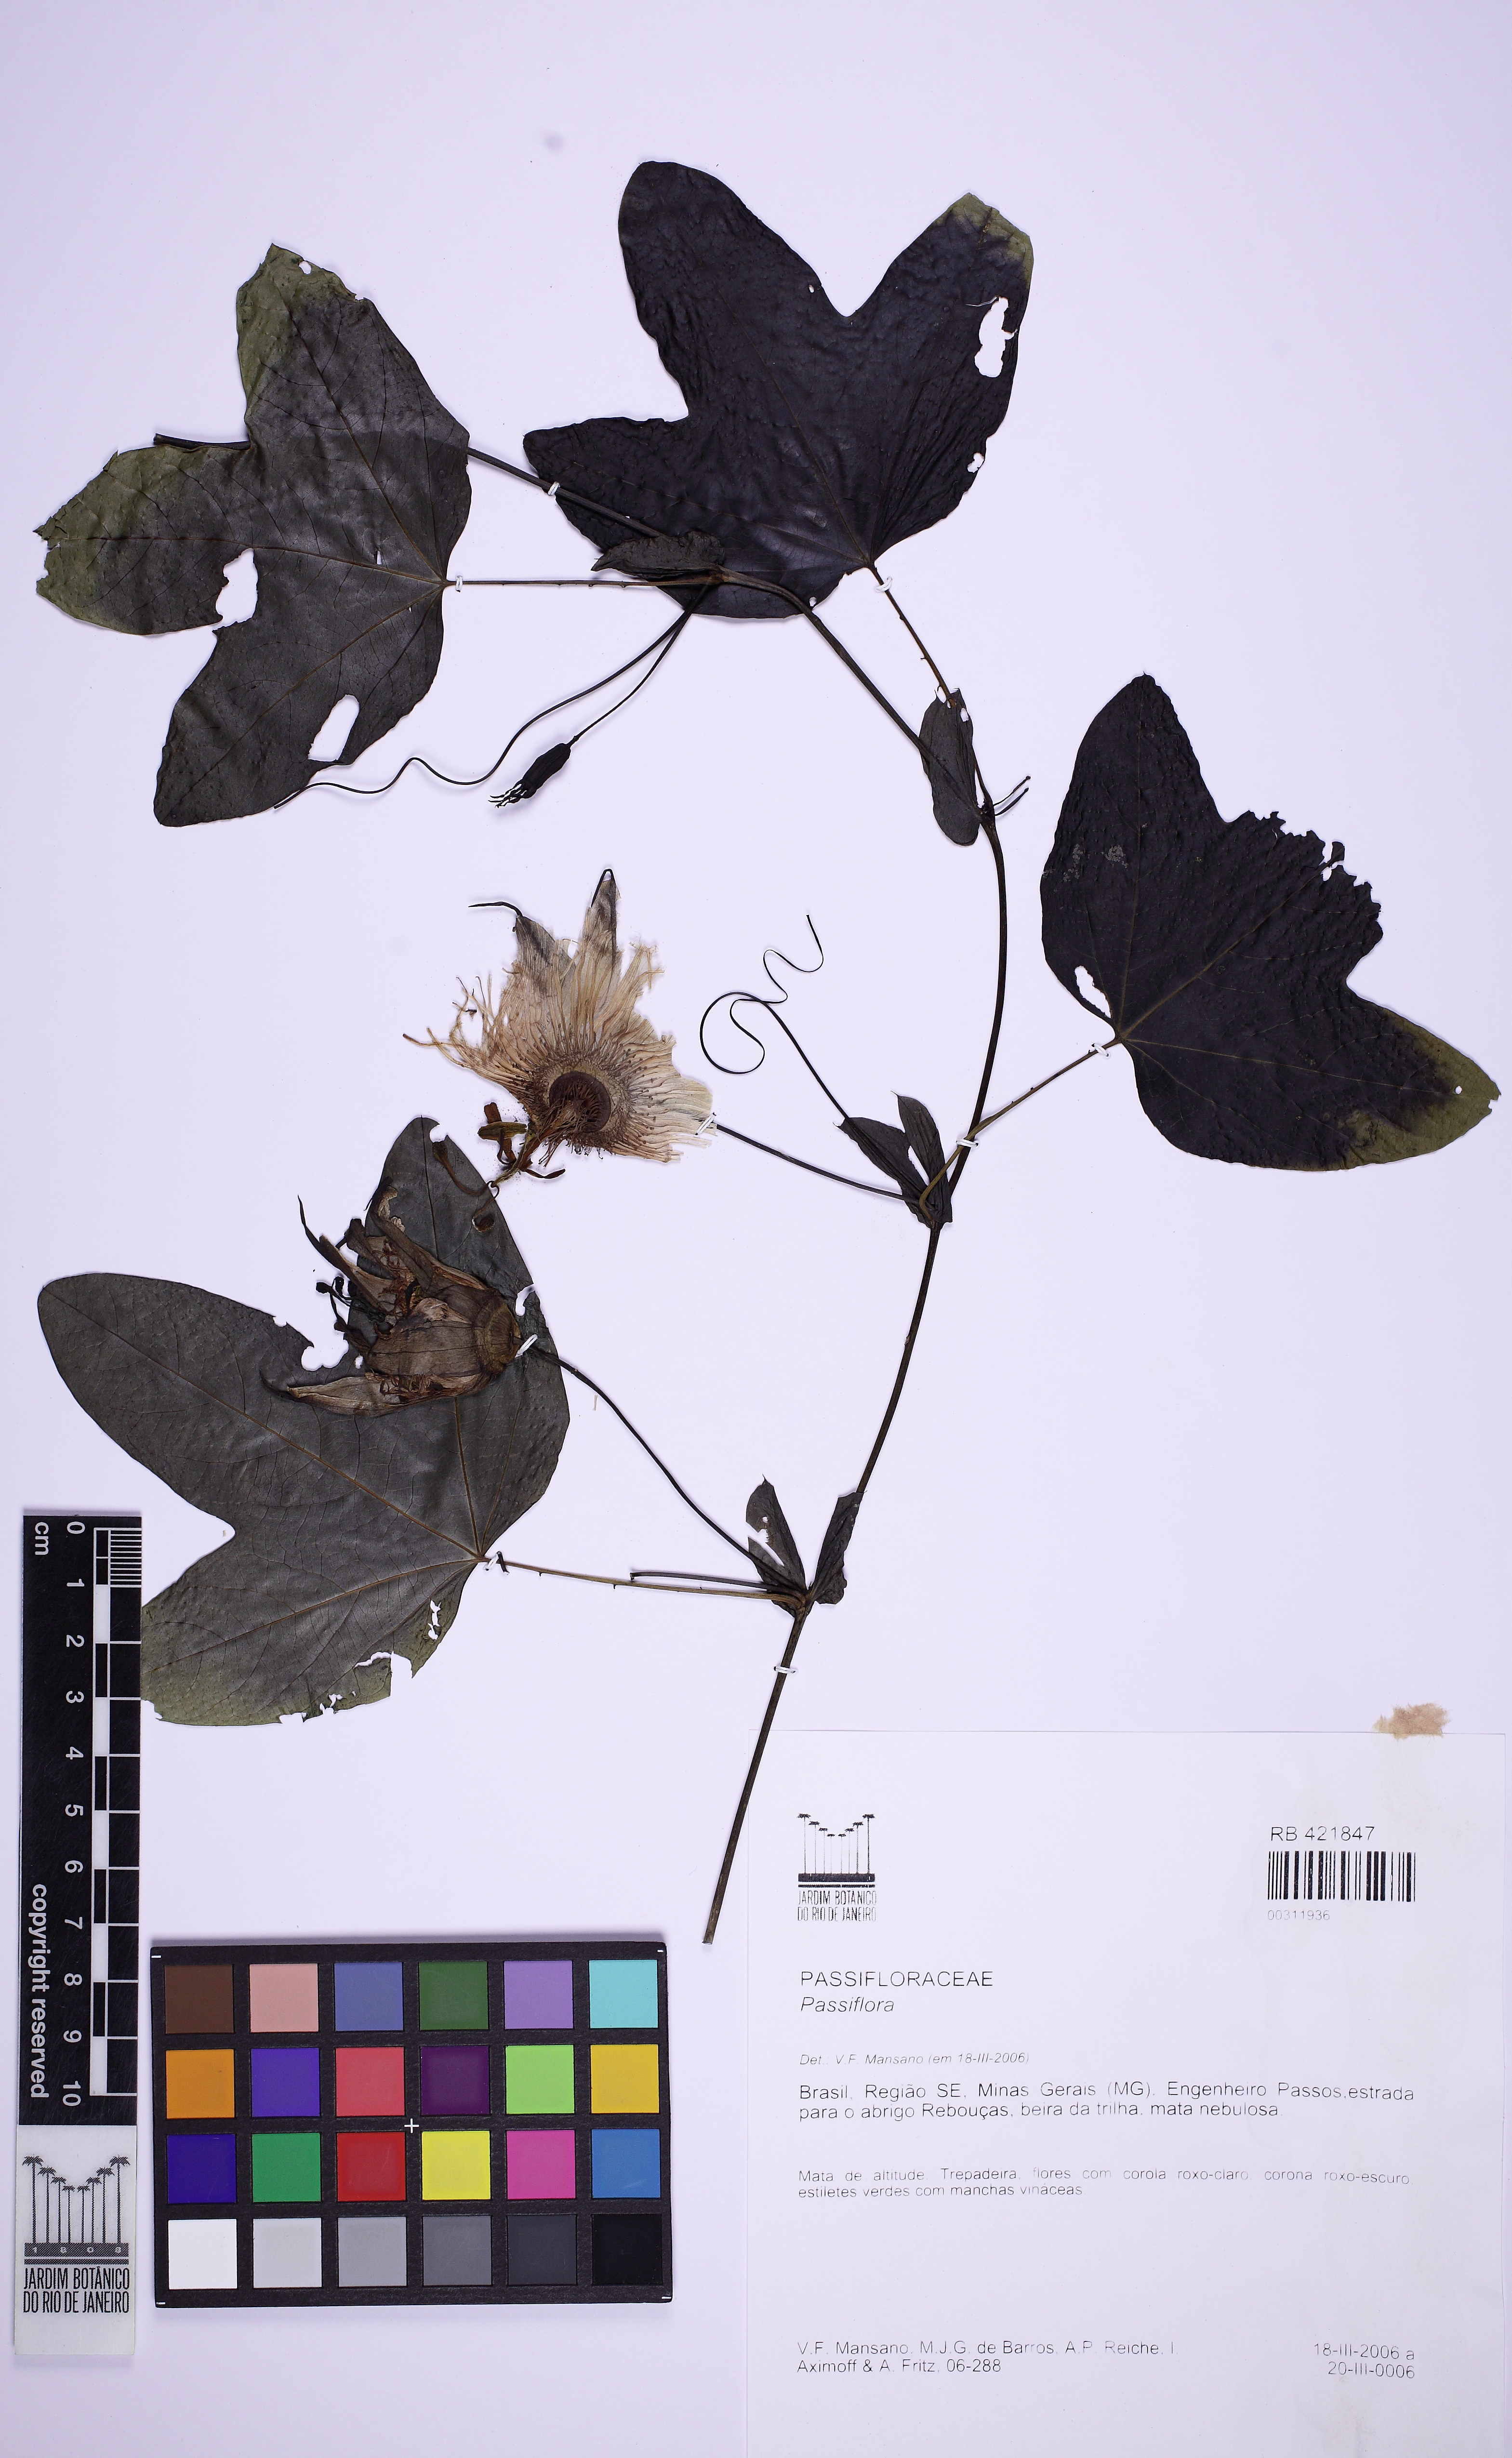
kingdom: Plantae
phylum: Tracheophyta
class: Magnoliopsida
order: Malpighiales
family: Passifloraceae
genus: Passiflora
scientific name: Passiflora
